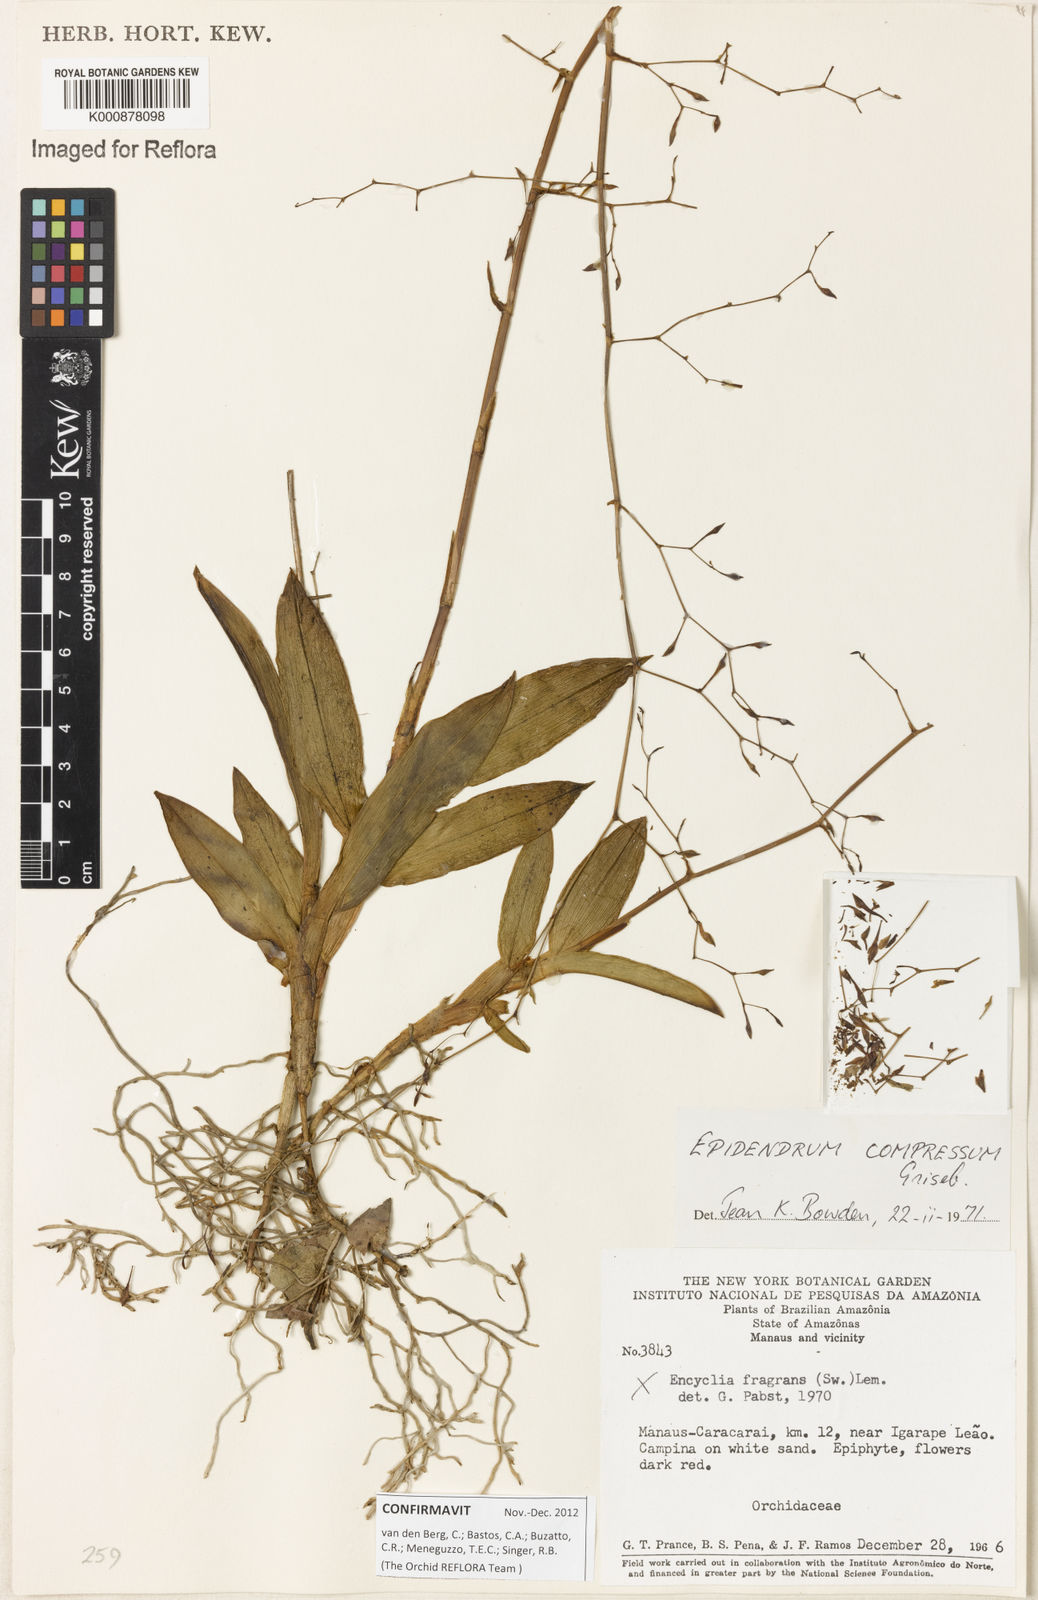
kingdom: Plantae
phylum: Tracheophyta
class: Liliopsida
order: Asparagales
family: Orchidaceae
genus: Epidendrum
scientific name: Epidendrum compressum
